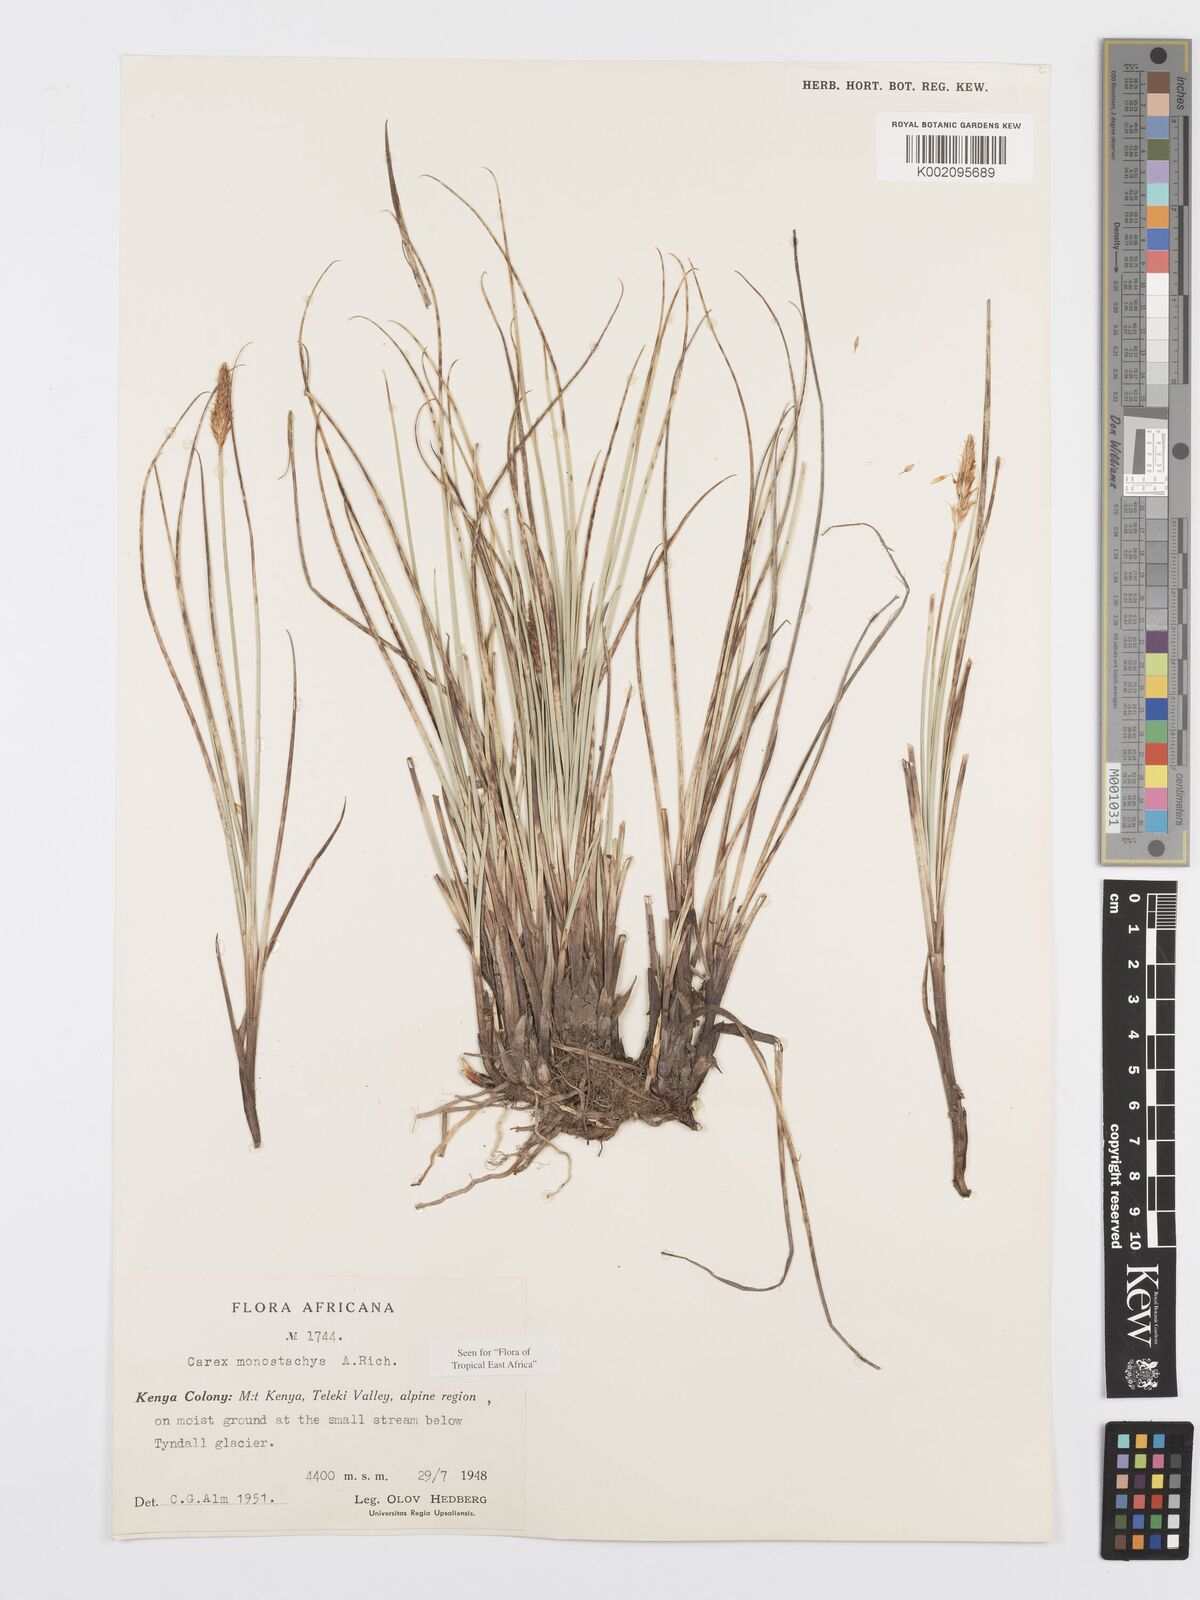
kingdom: Plantae
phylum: Tracheophyta
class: Liliopsida
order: Poales
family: Cyperaceae
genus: Carex
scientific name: Carex monostachya
